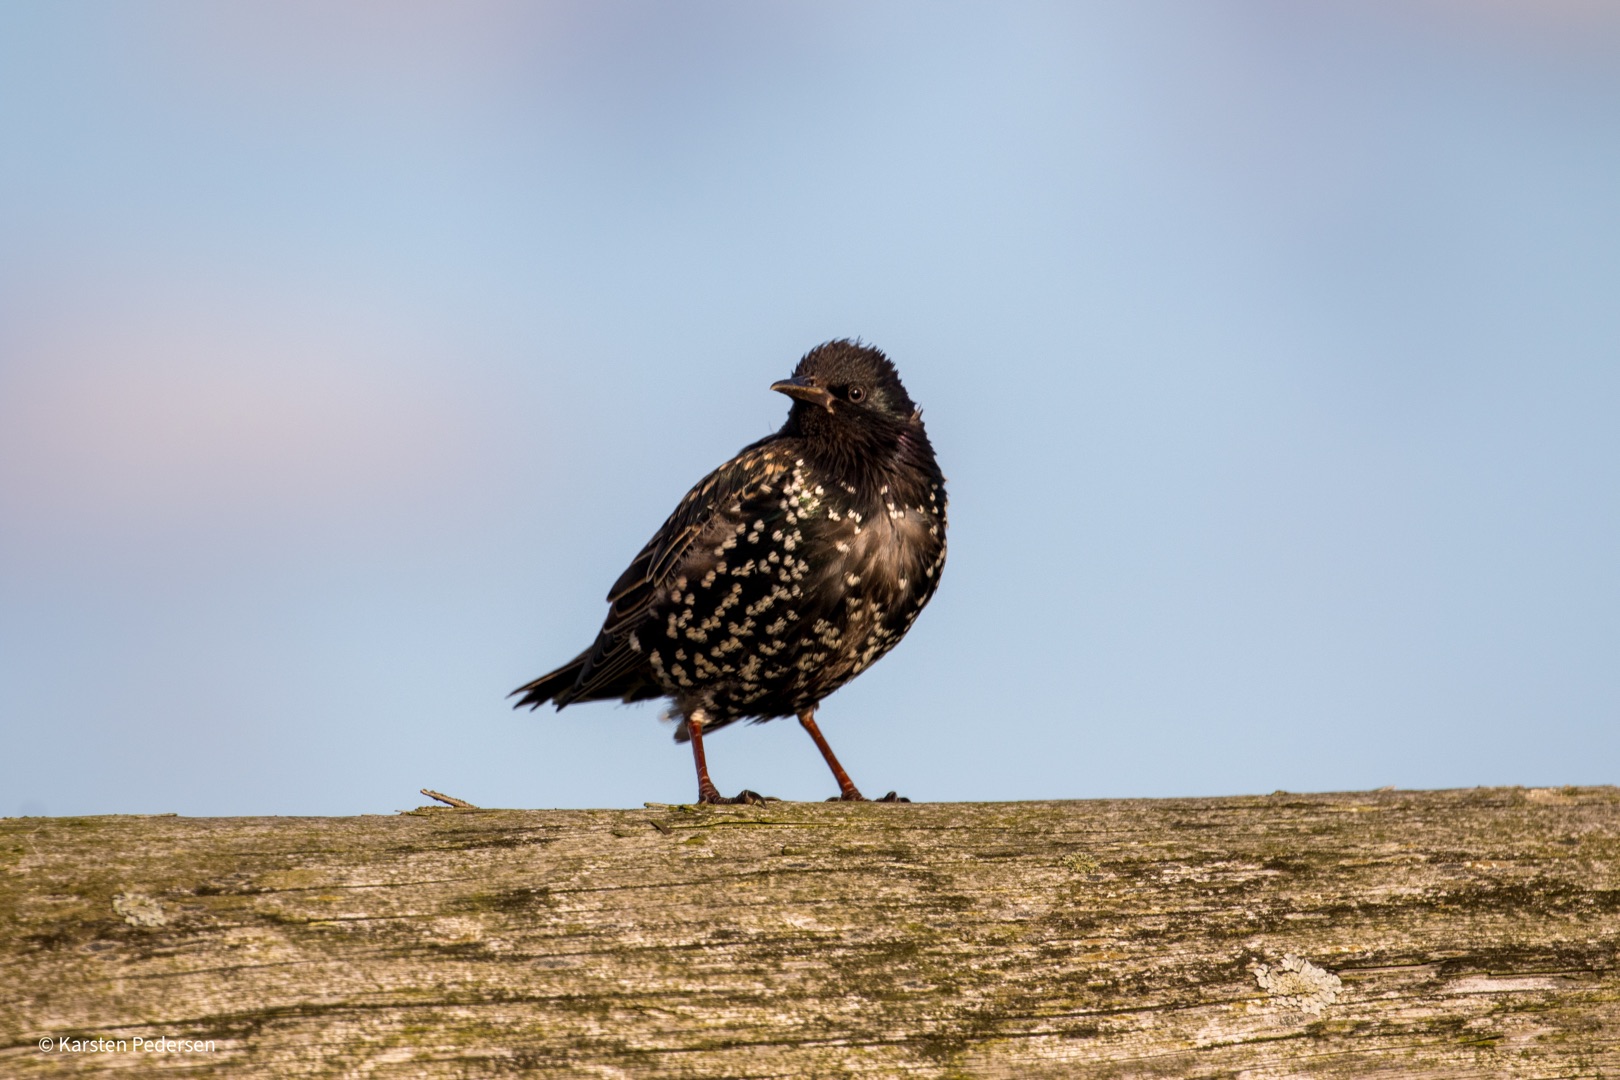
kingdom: Animalia
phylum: Chordata
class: Aves
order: Passeriformes
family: Sturnidae
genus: Sturnus
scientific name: Sturnus vulgaris
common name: Stær
